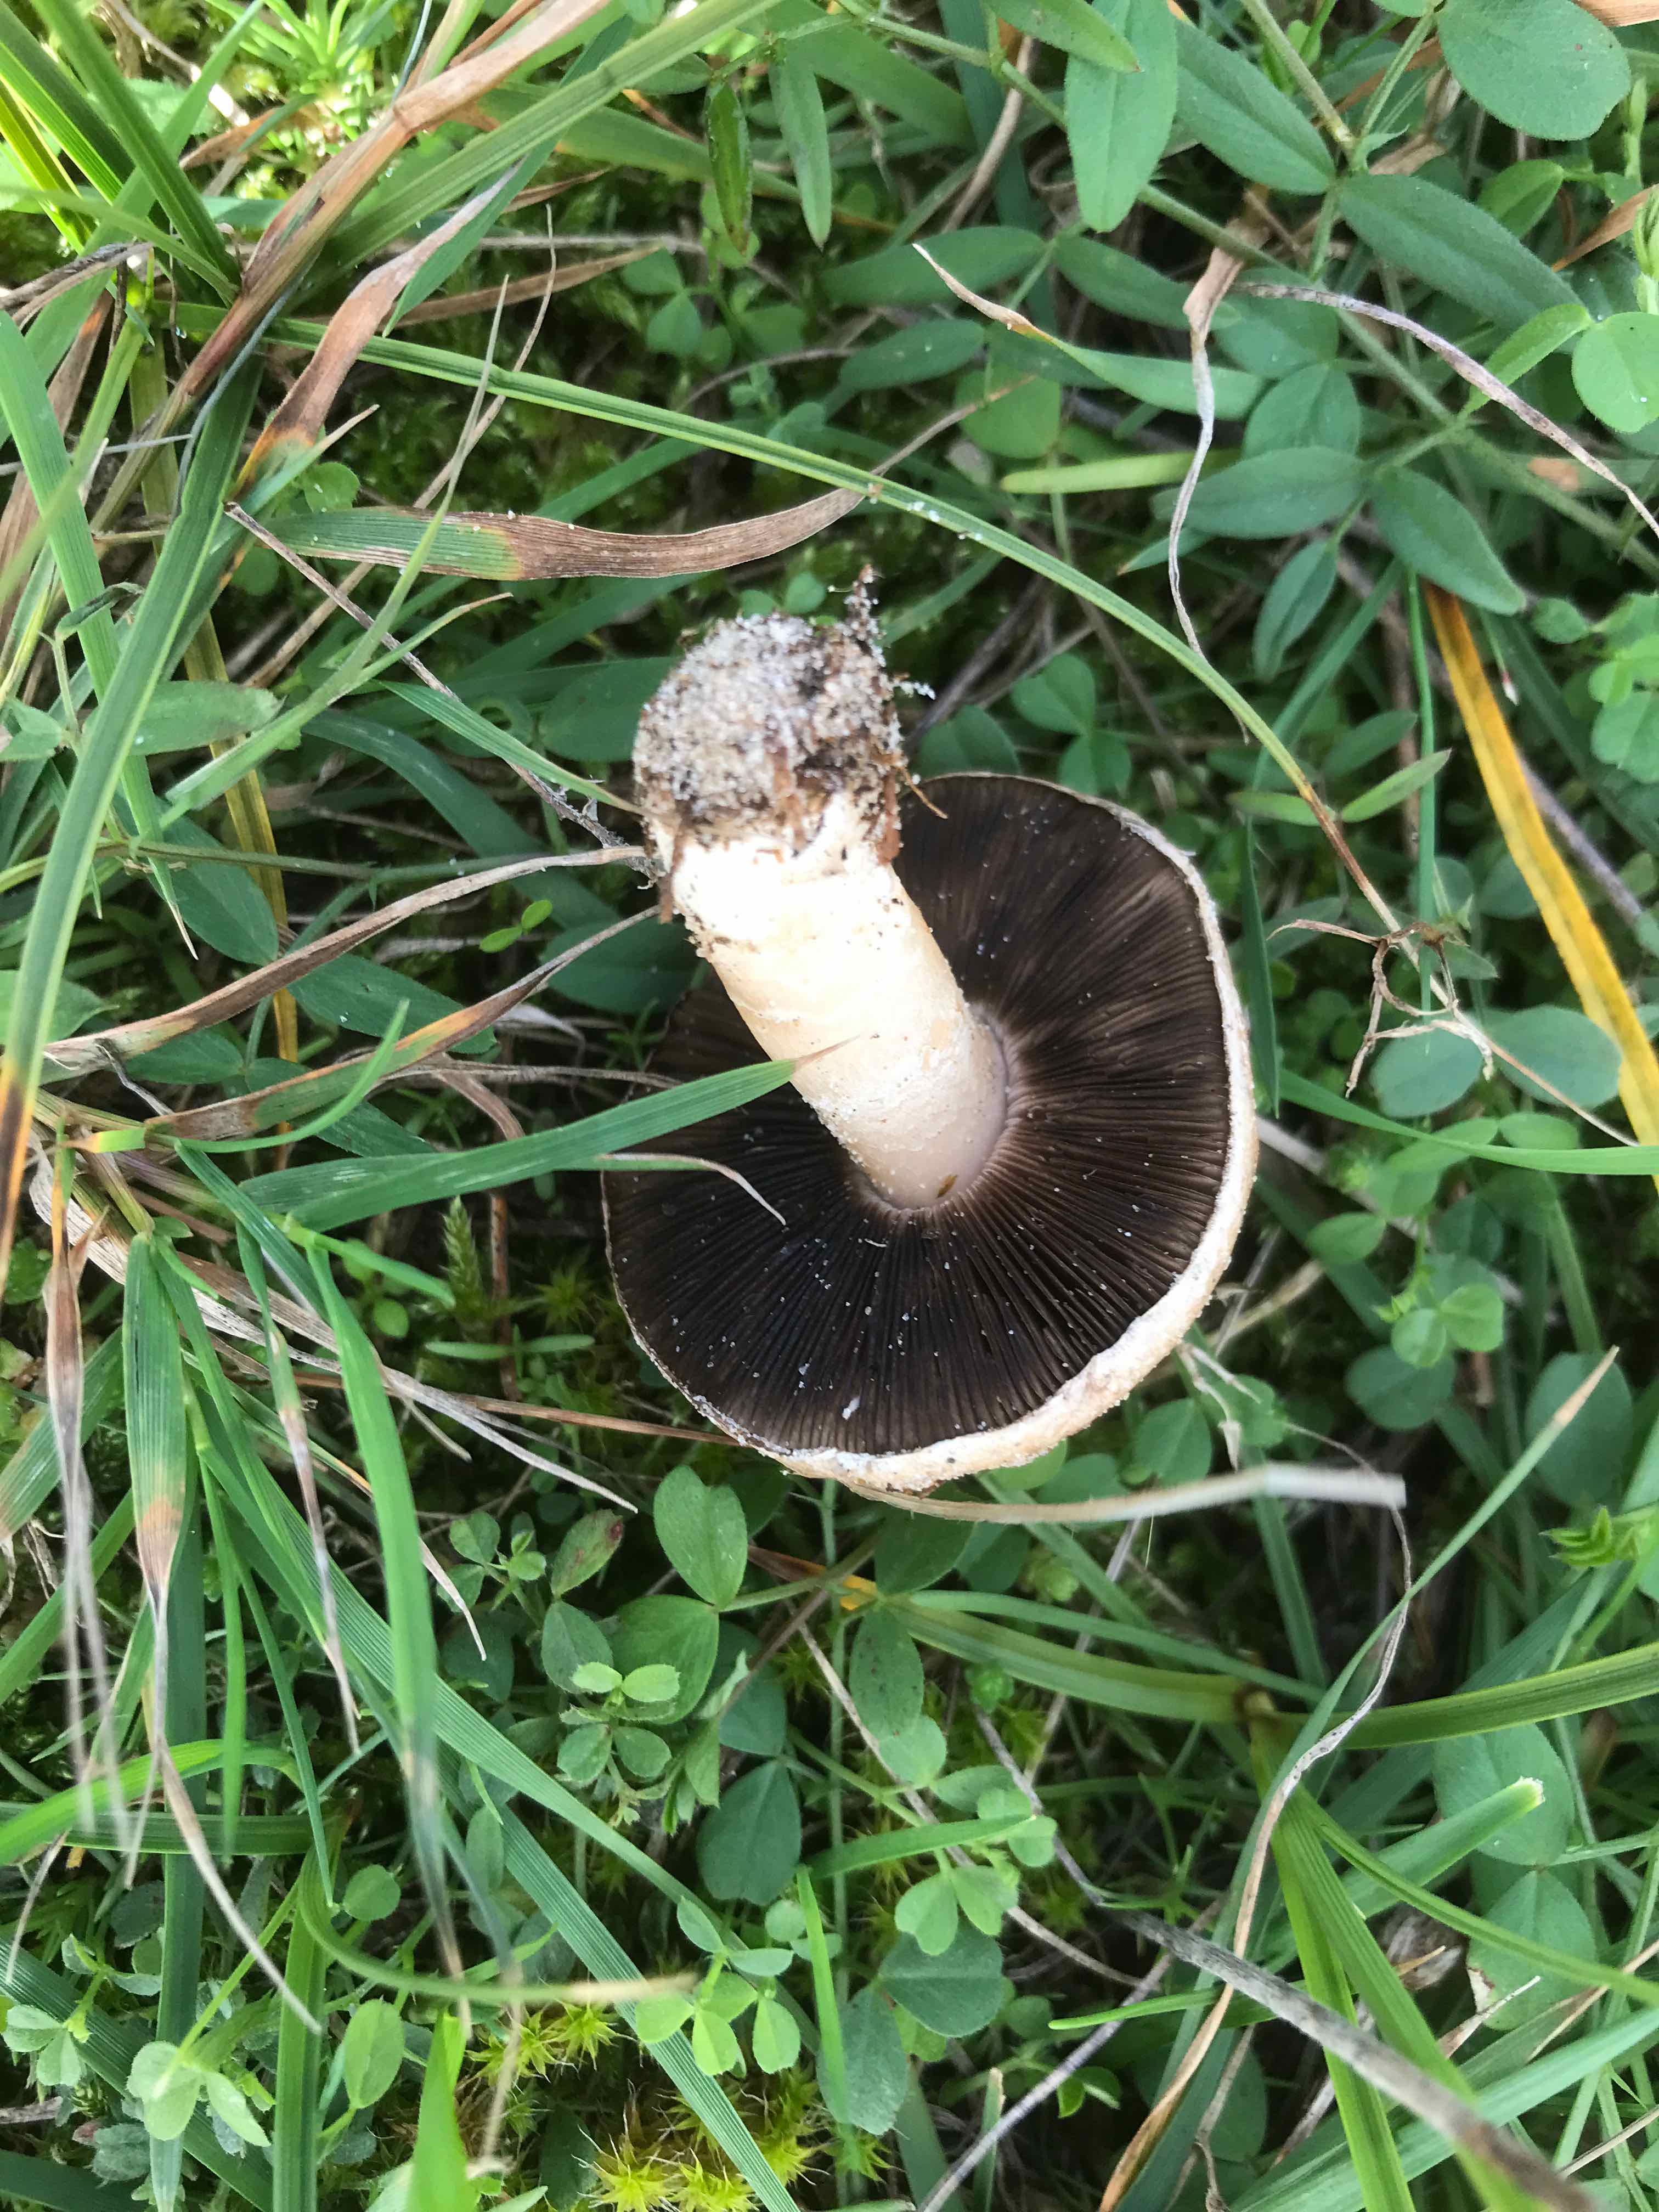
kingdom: Fungi
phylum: Basidiomycota
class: Agaricomycetes
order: Agaricales
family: Agaricaceae
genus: Agaricus
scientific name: Agaricus cupreobrunneus
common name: kobberbrun champignon
